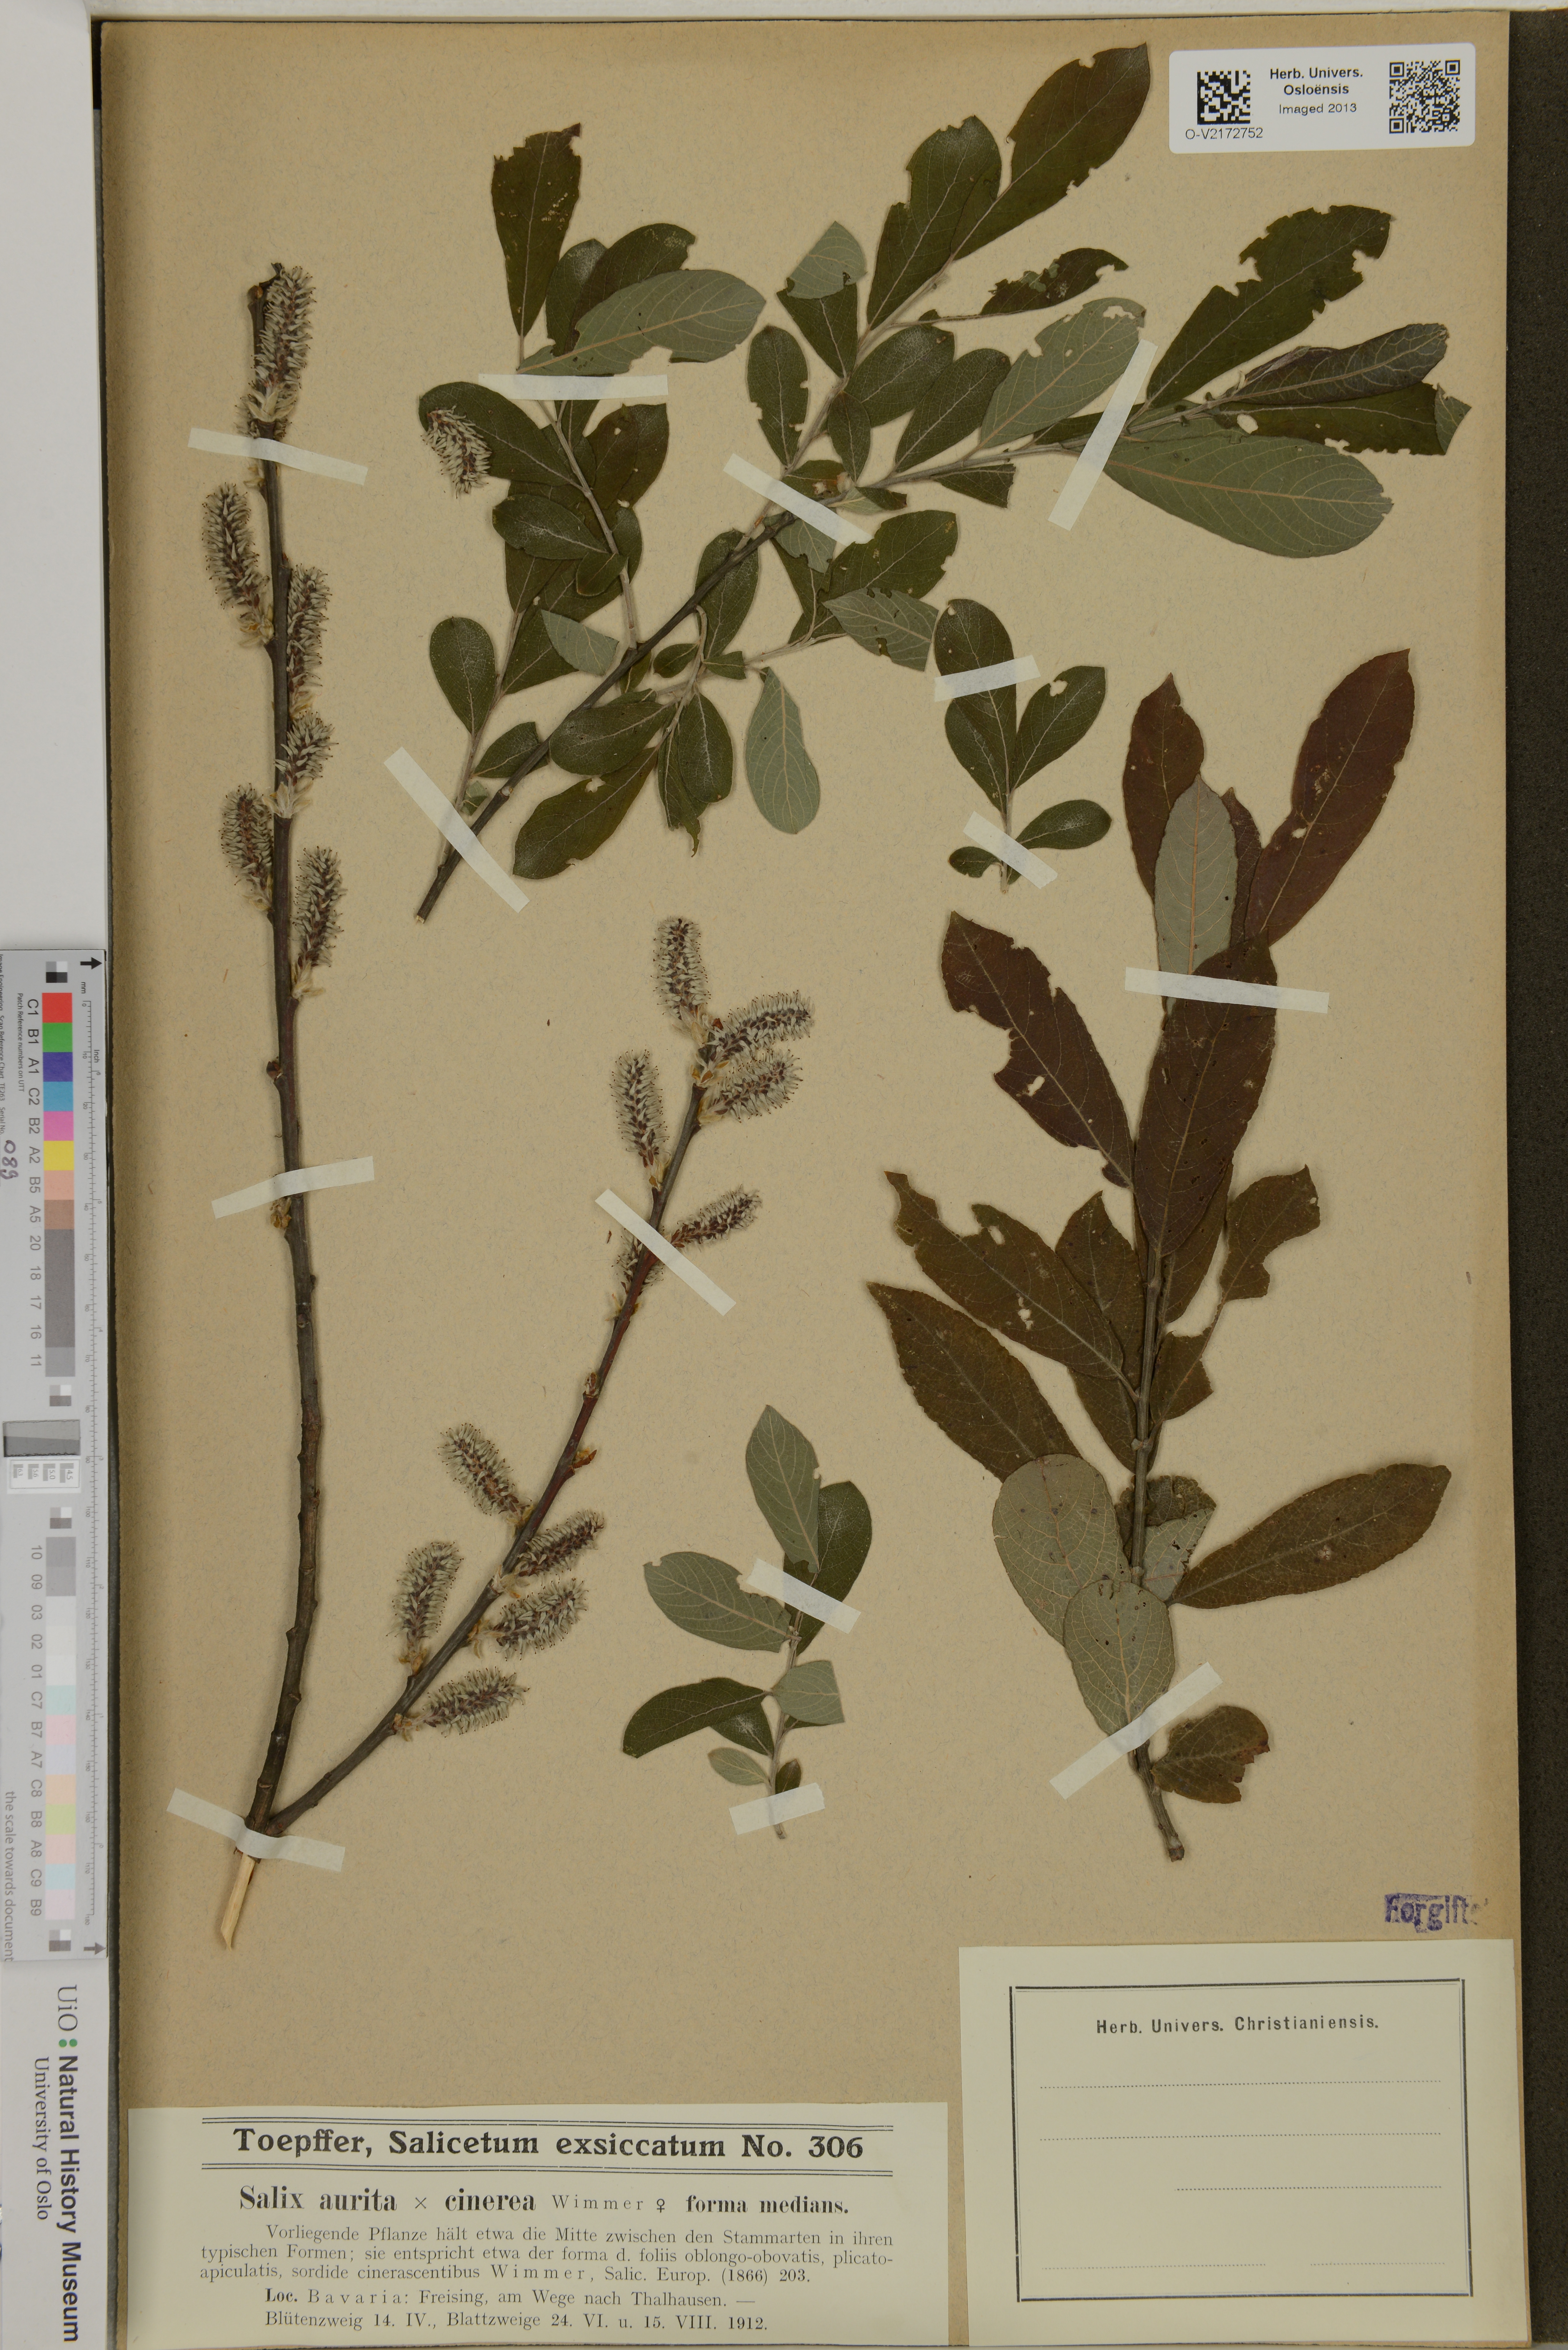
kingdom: Plantae
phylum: Tracheophyta
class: Magnoliopsida
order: Malpighiales
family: Salicaceae
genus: Salix
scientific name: Salix
